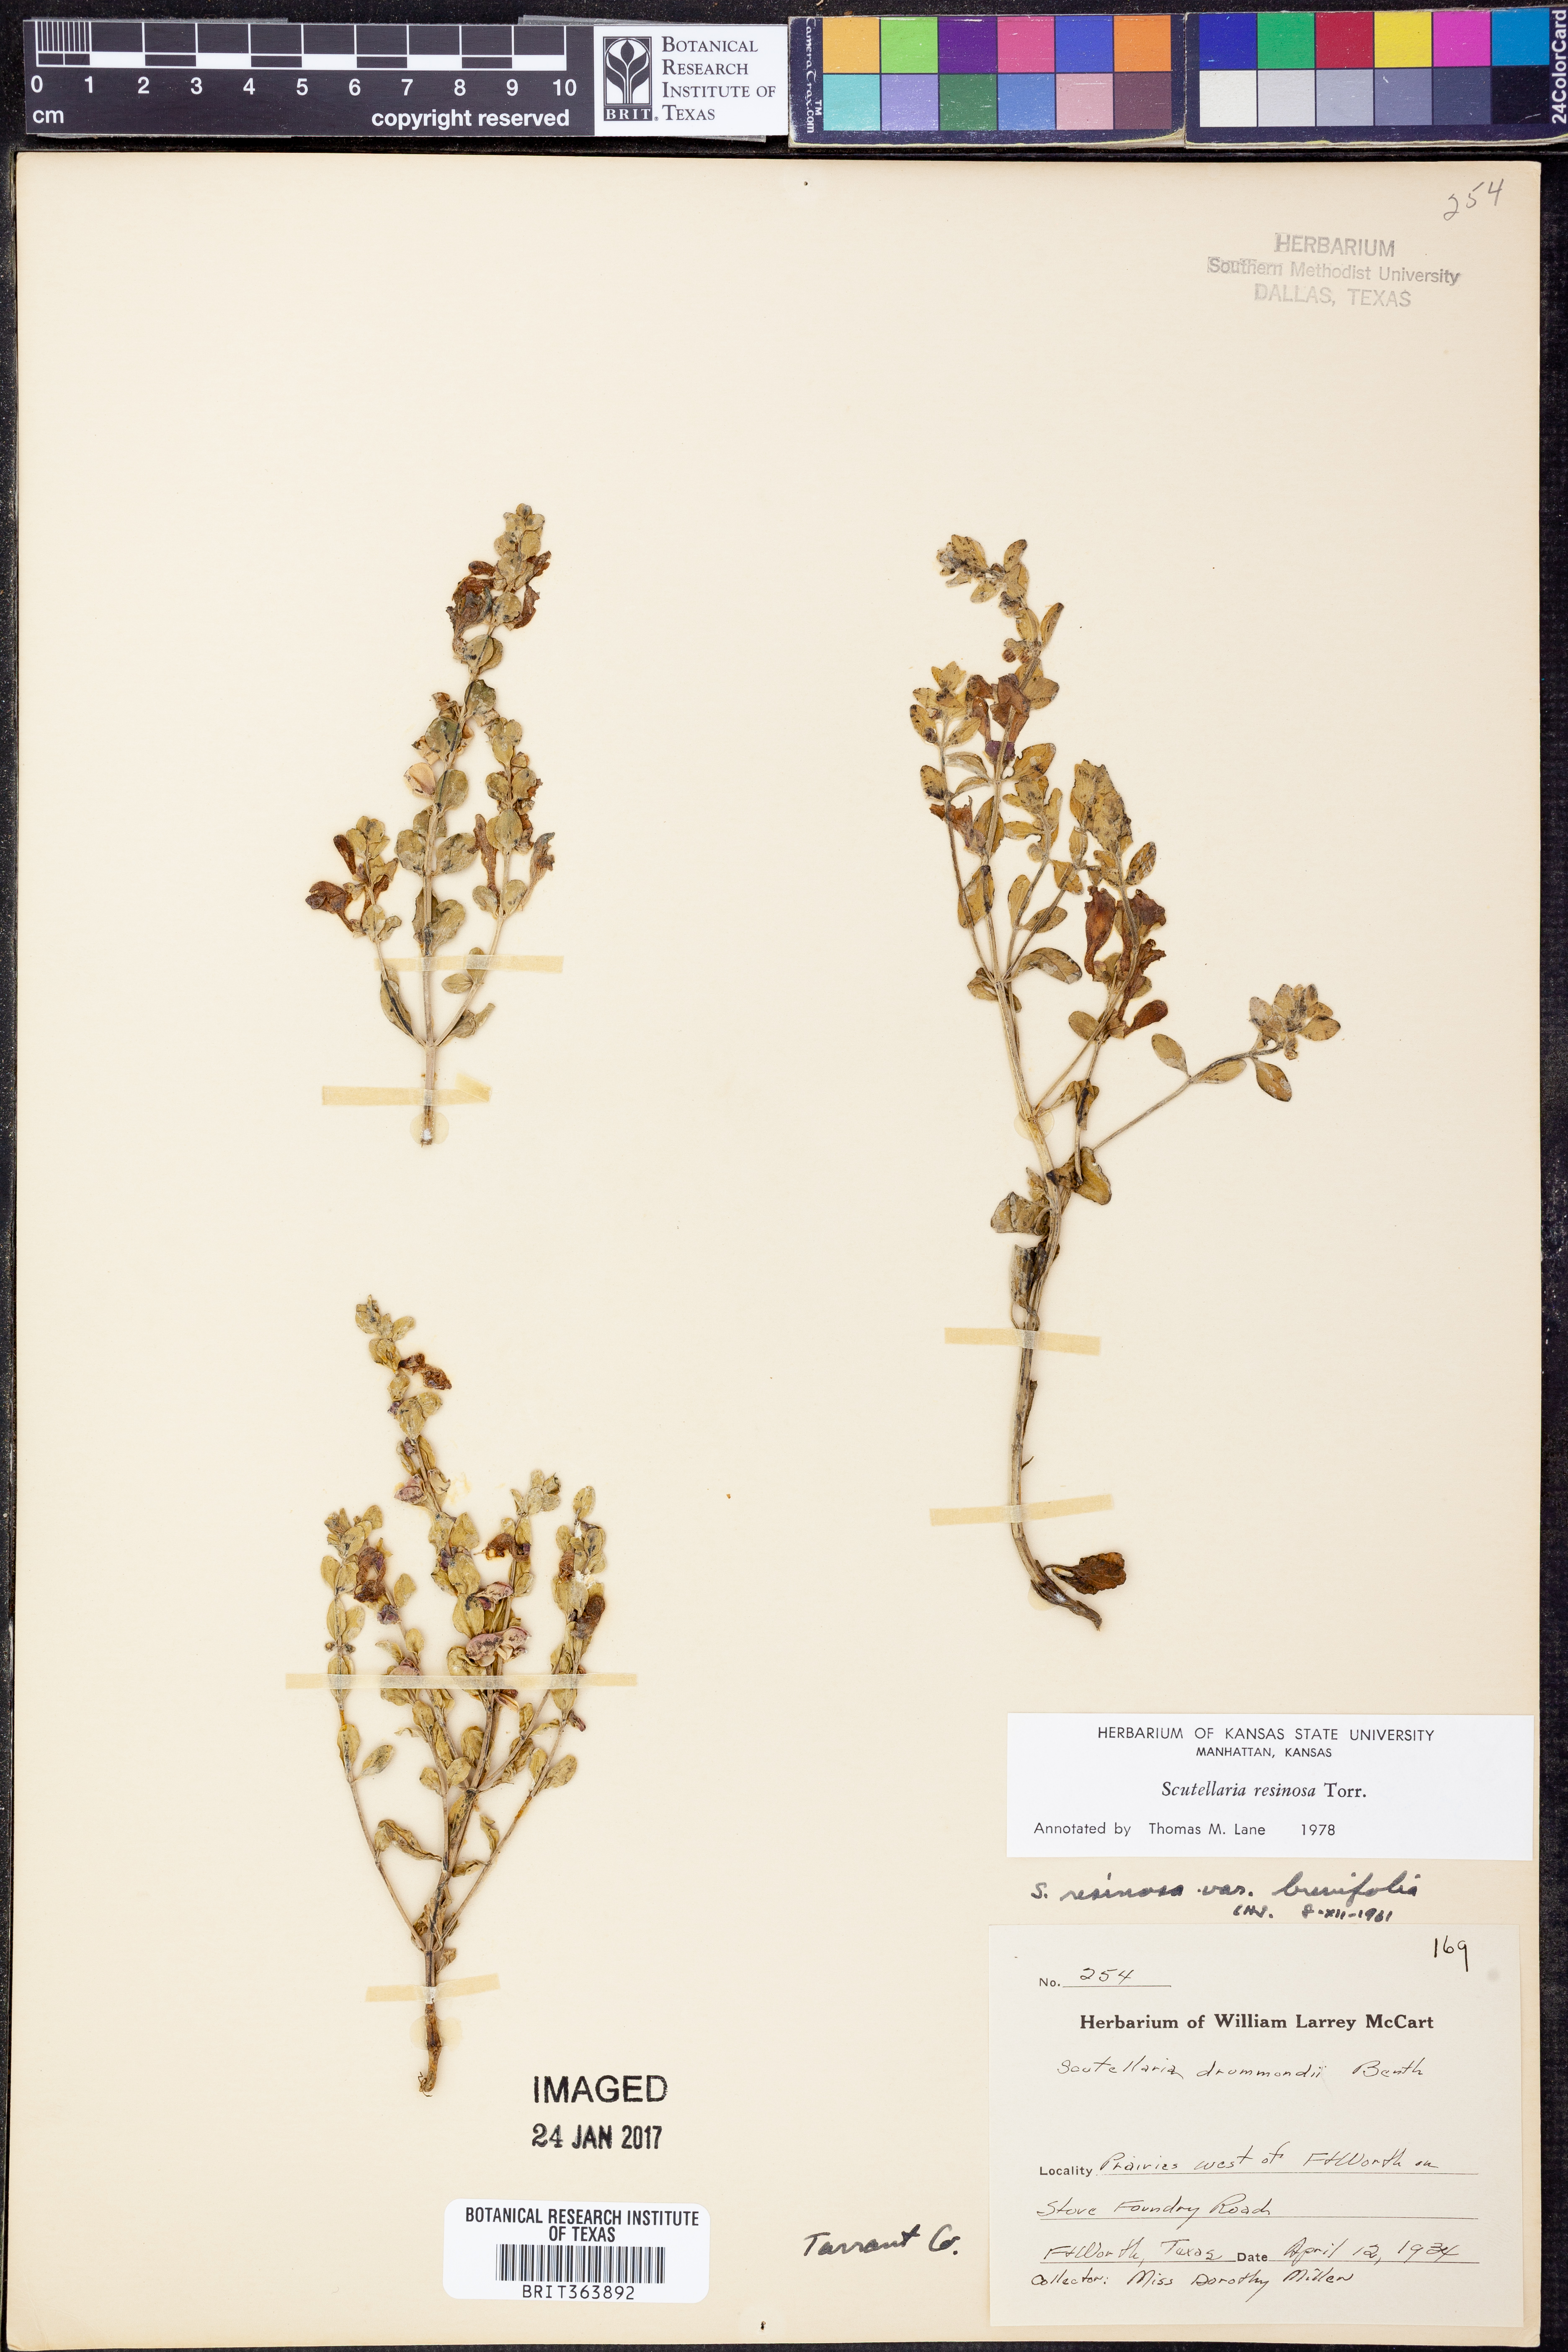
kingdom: Plantae
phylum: Tracheophyta
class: Magnoliopsida
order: Lamiales
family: Lamiaceae
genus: Scutellaria
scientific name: Scutellaria resinosa
